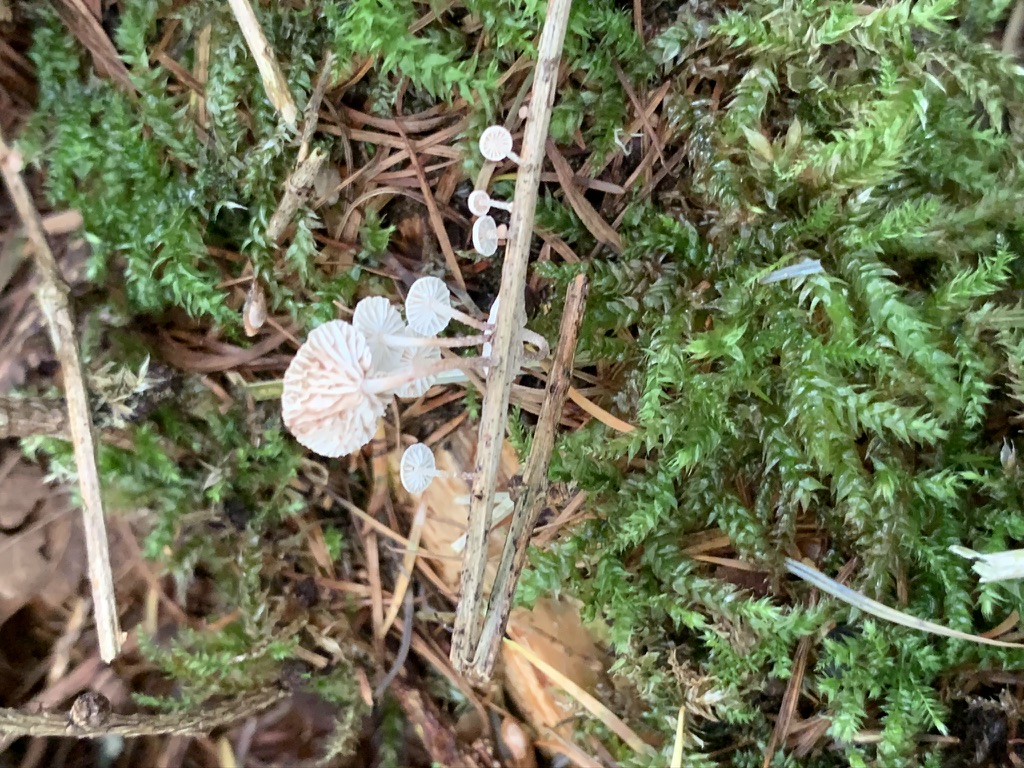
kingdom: Fungi
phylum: Basidiomycota
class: Agaricomycetes
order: Agaricales
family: Omphalotaceae
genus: Collybiopsis
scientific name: Collybiopsis ramealis
